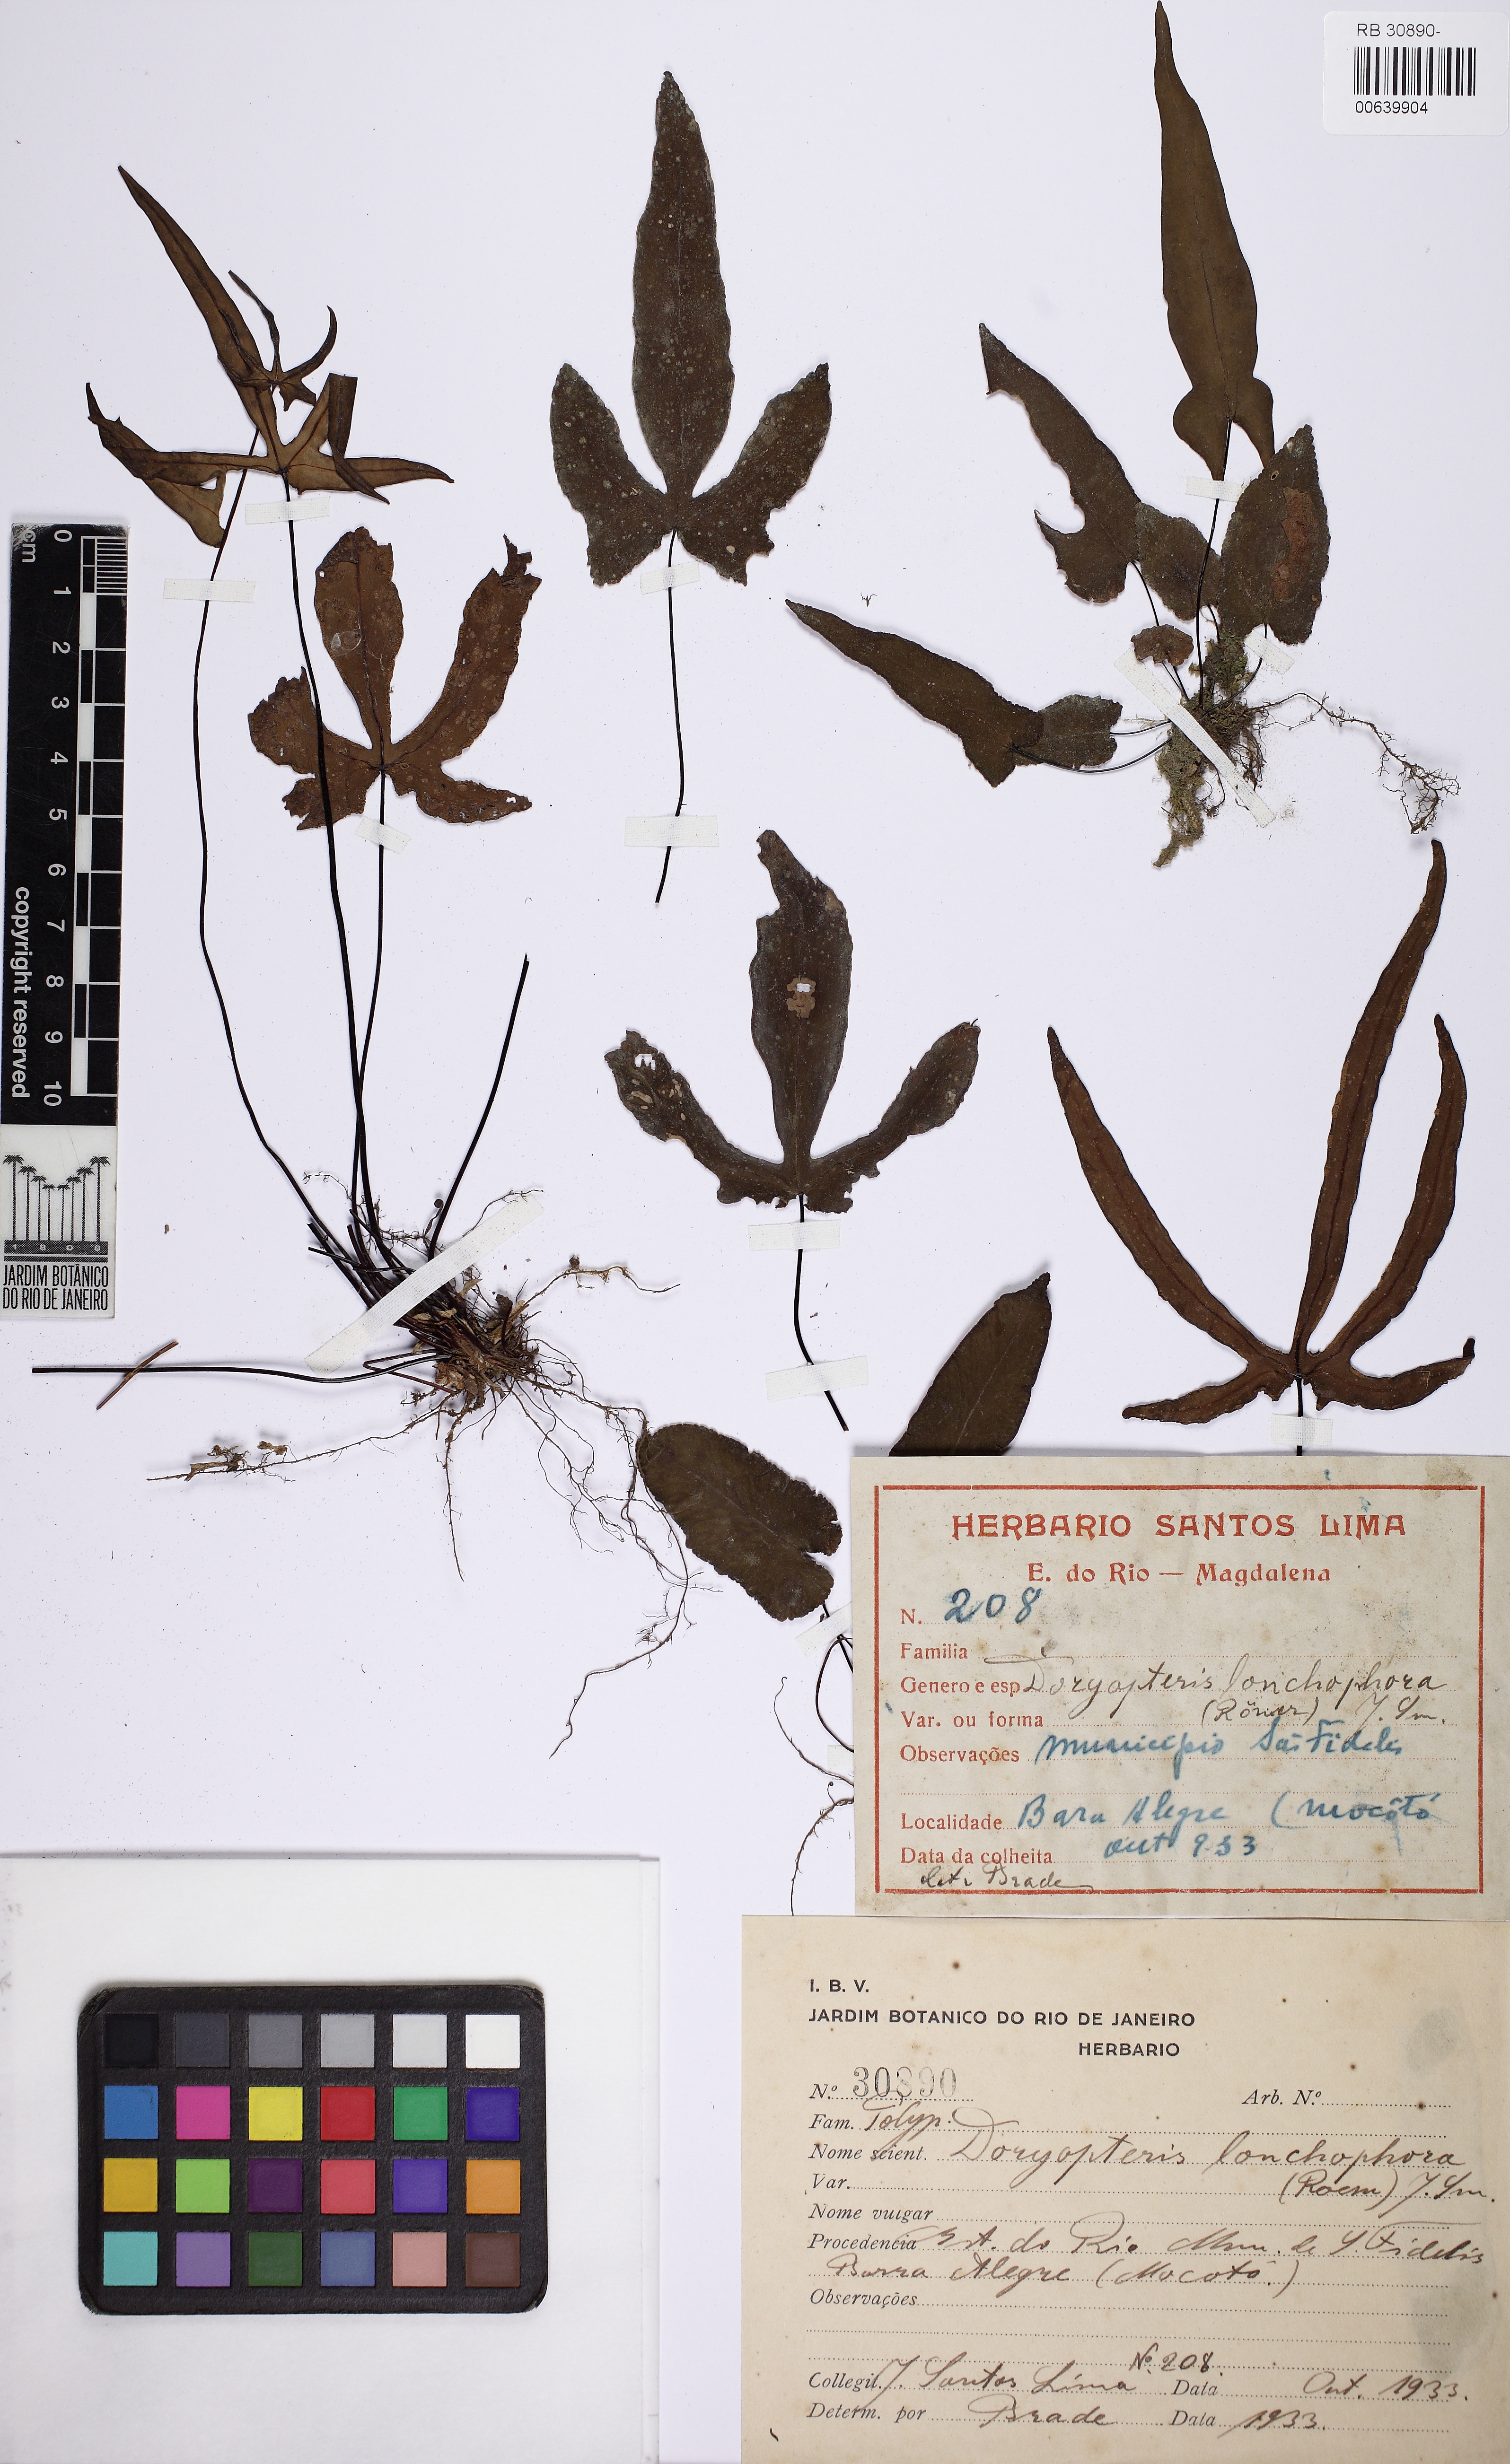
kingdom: Plantae
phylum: Tracheophyta
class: Polypodiopsida
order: Polypodiales
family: Pteridaceae
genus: Doryopteris
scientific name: Doryopteris lonchophora
